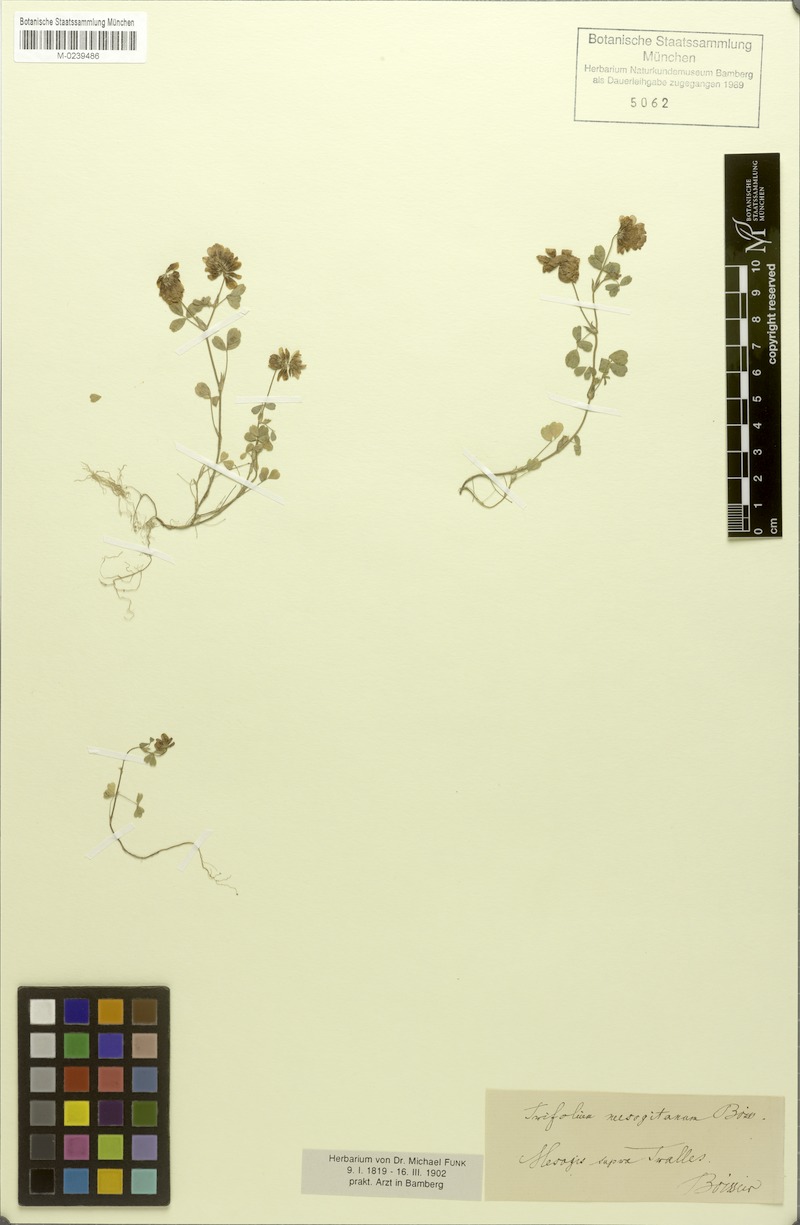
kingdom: Plantae
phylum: Tracheophyta
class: Magnoliopsida
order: Fabales
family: Fabaceae
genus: Trifolium
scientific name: Trifolium brutium
